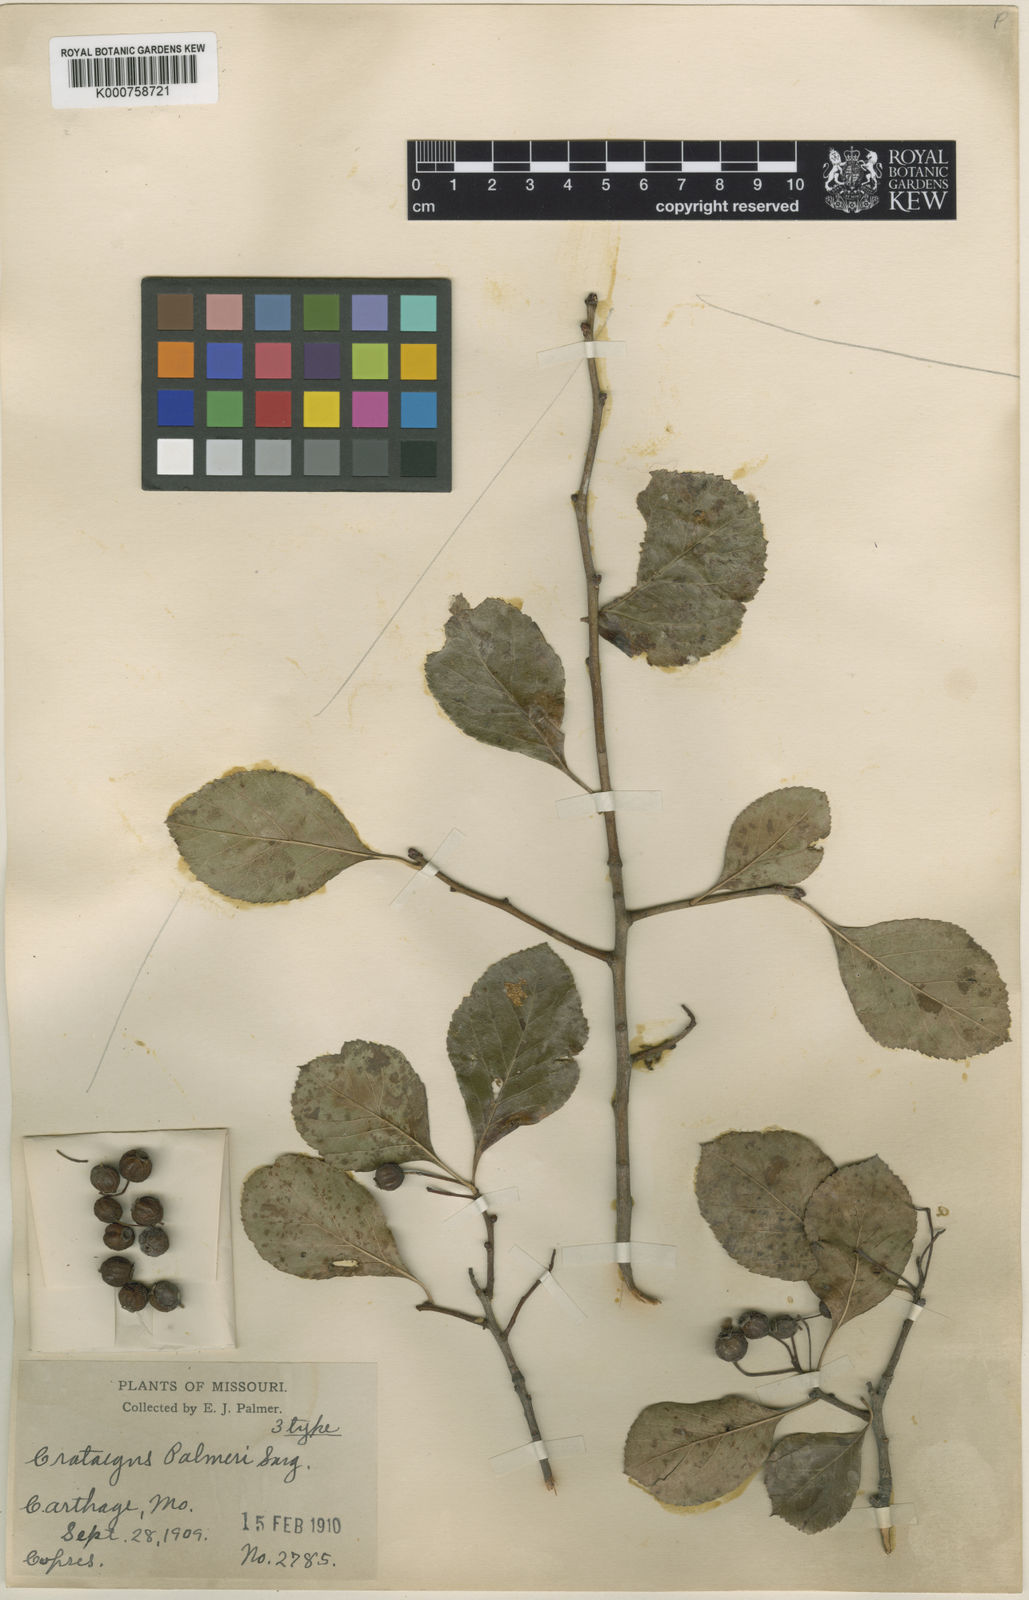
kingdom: Plantae
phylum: Tracheophyta
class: Magnoliopsida
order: Rosales
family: Rosaceae
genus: Crataegus
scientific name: Crataegus reverchonii
